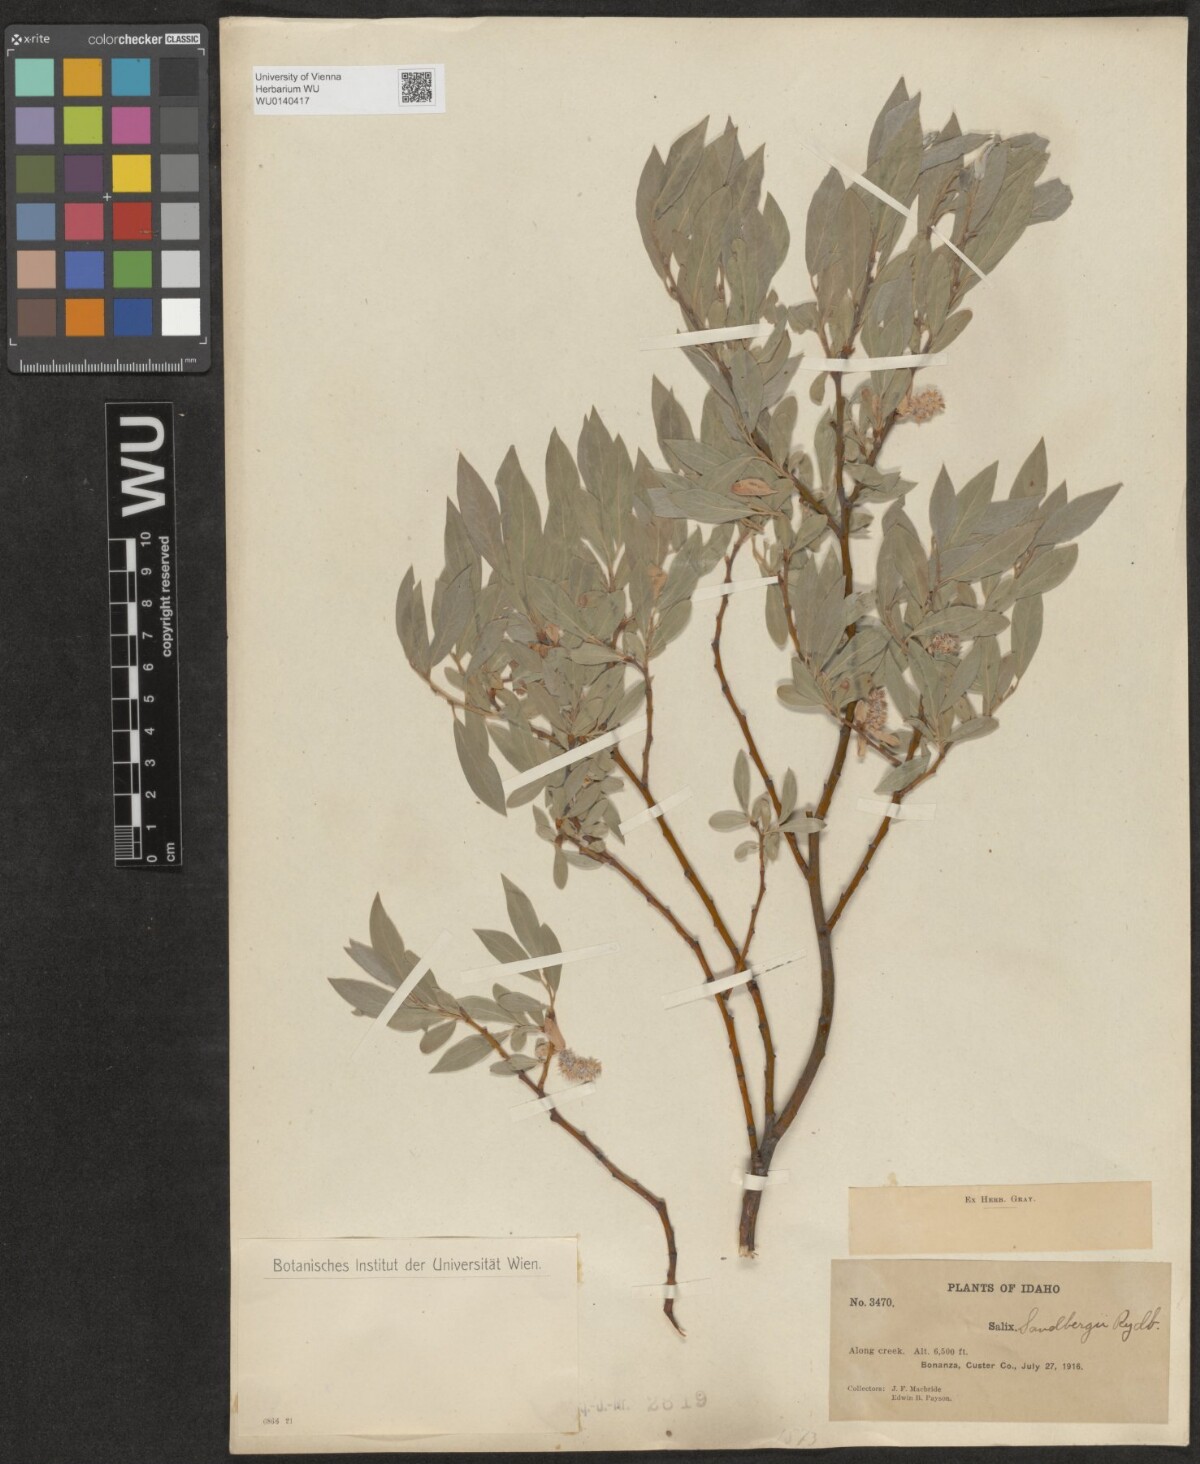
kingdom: Plantae
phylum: Tracheophyta
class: Magnoliopsida
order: Malpighiales
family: Salicaceae
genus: Salix
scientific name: Salix lasiolepis
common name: Arroyo willow
